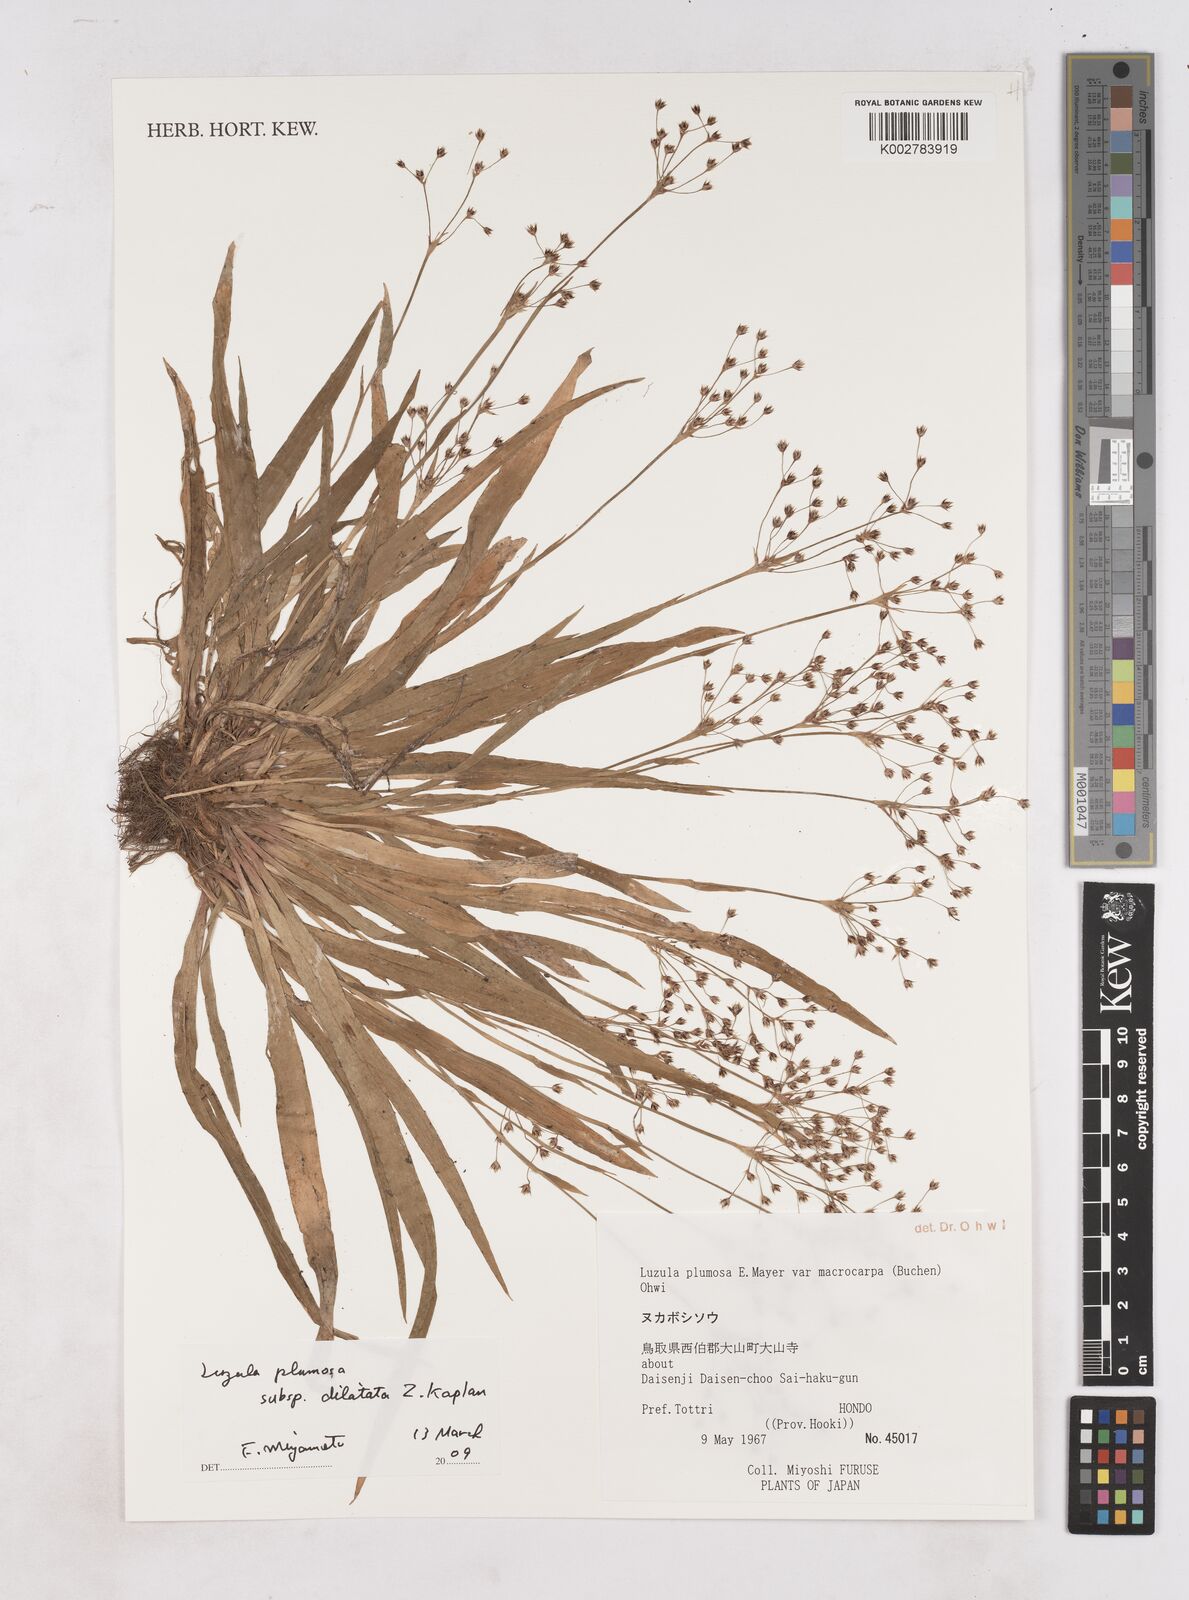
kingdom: Plantae
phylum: Tracheophyta
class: Liliopsida
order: Poales
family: Juncaceae
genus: Luzula
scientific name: Luzula plumosa
